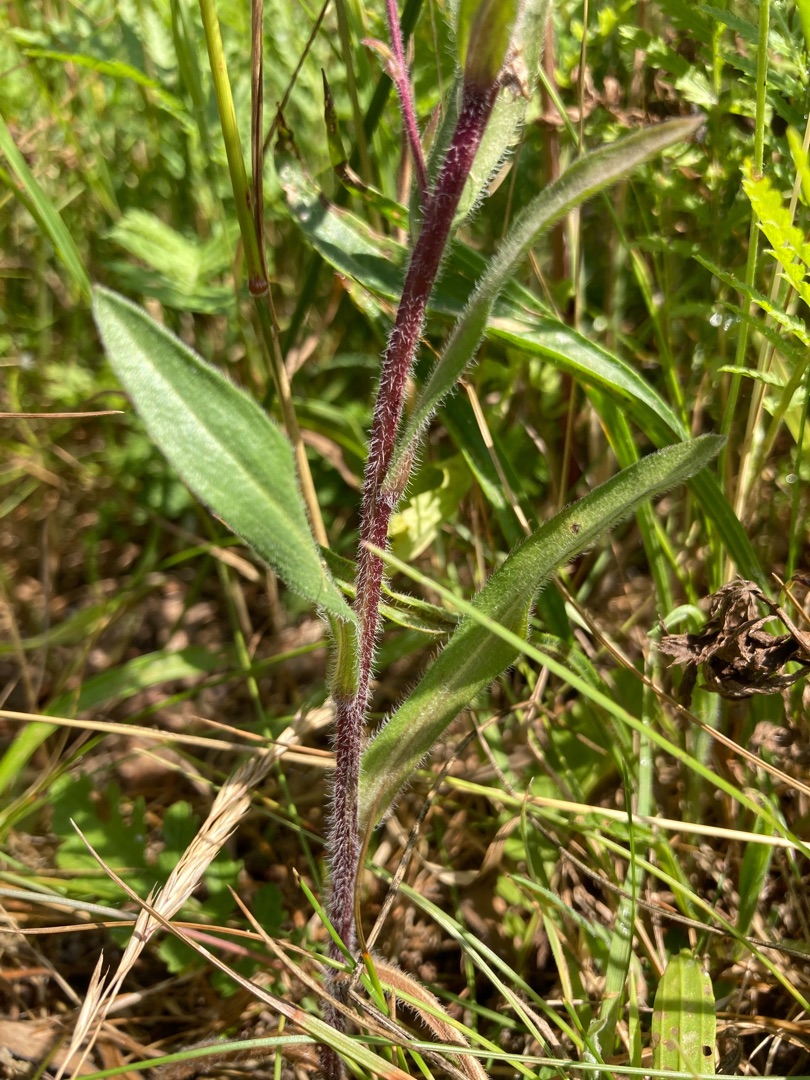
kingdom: Plantae
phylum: Tracheophyta
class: Magnoliopsida
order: Asterales
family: Asteraceae
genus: Erigeron
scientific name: Erigeron acris
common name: Bitter bakkestjerne
